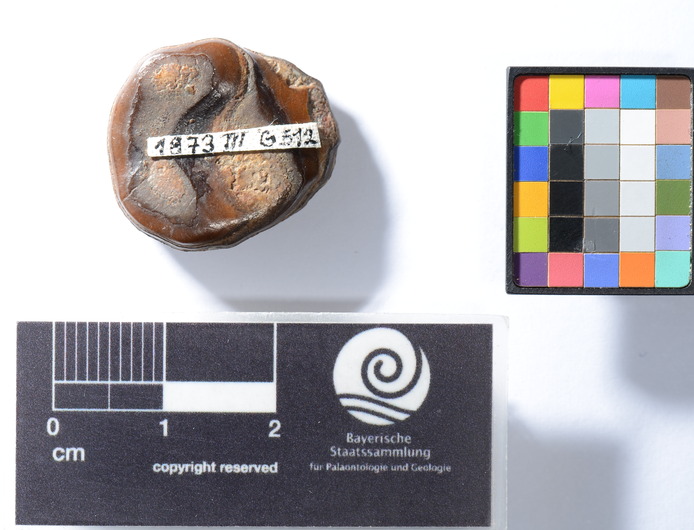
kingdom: Animalia
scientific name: Animalia
